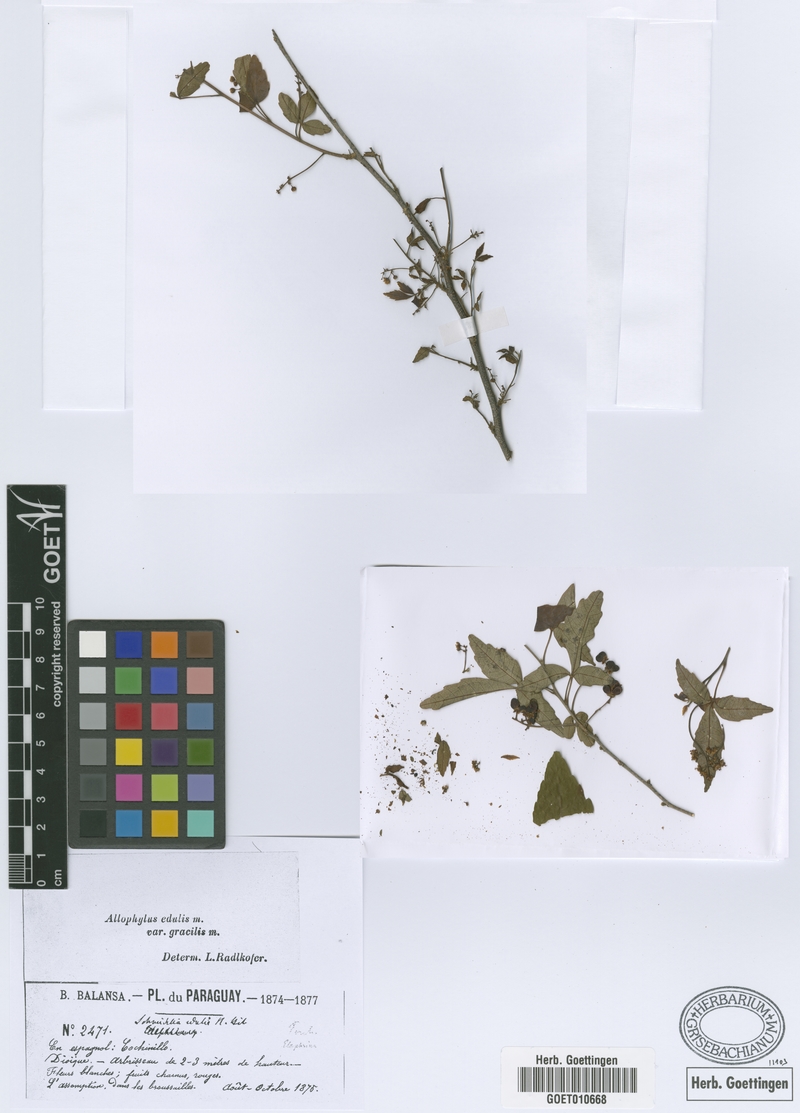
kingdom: Plantae
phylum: Tracheophyta
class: Magnoliopsida
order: Sapindales
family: Sapindaceae
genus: Allophylus
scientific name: Allophylus edulis
